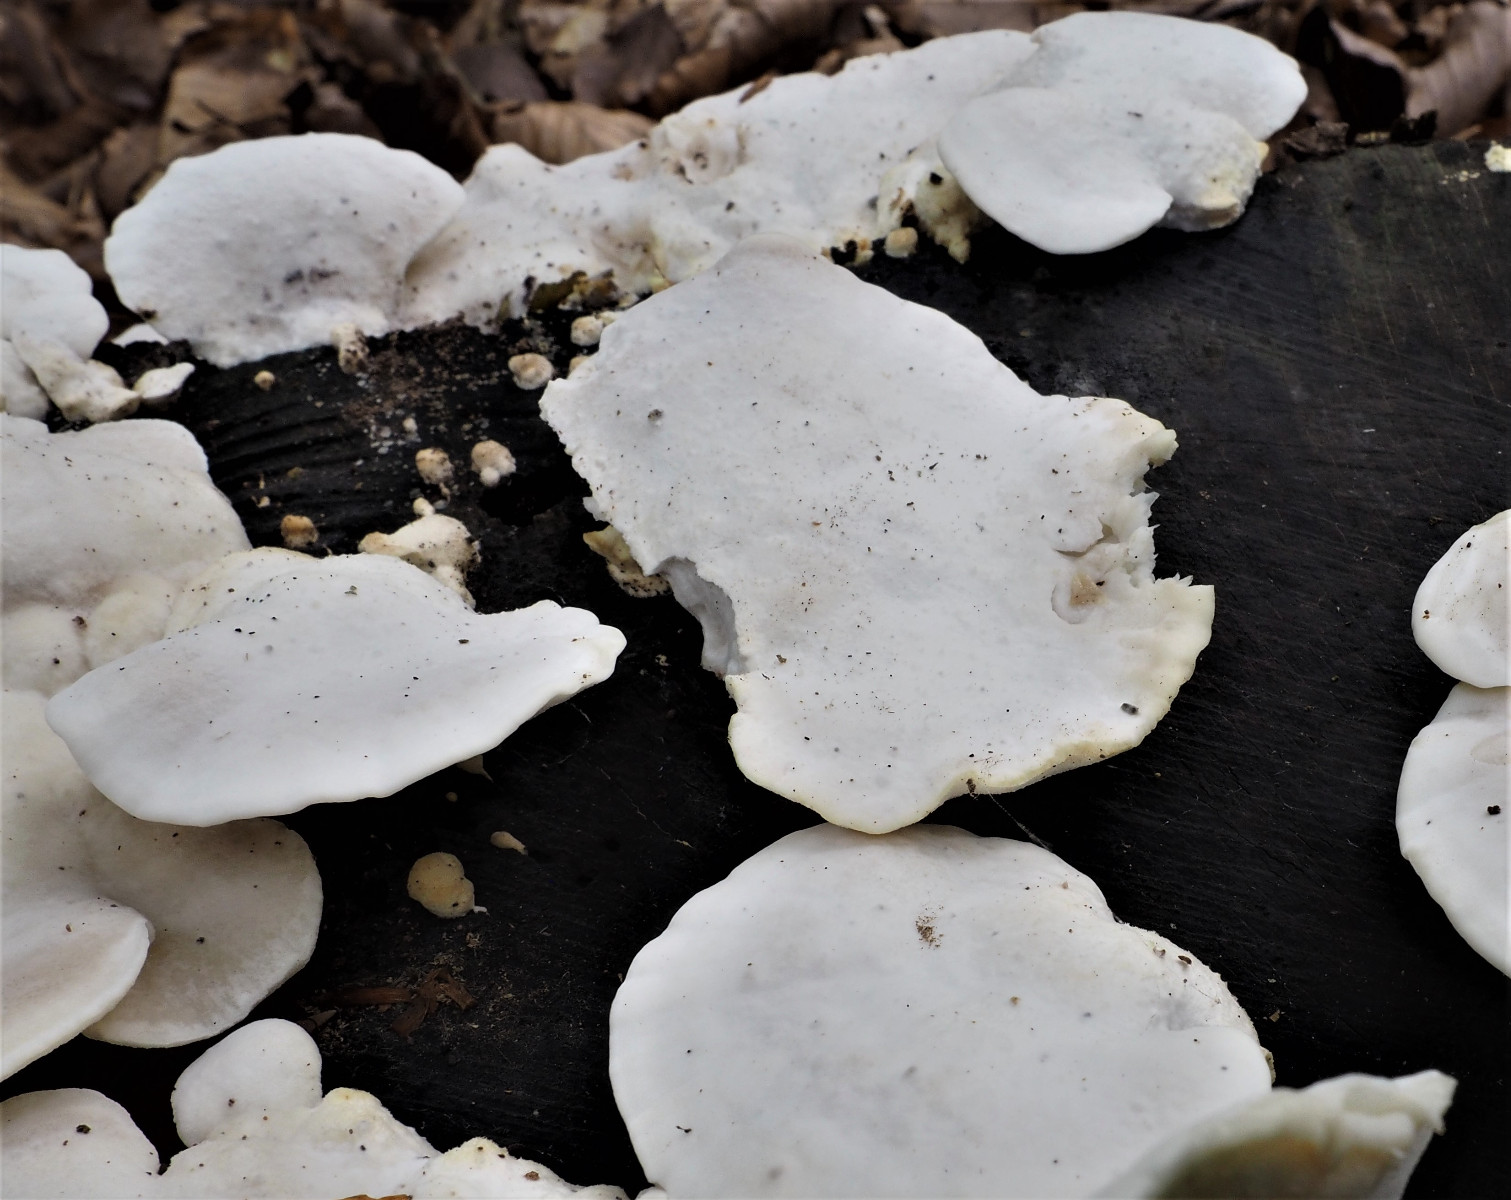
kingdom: Fungi
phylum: Basidiomycota
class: Agaricomycetes
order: Polyporales
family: Incrustoporiaceae
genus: Tyromyces
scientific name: Tyromyces lacteus
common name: mælkehvid kødporesvamp
